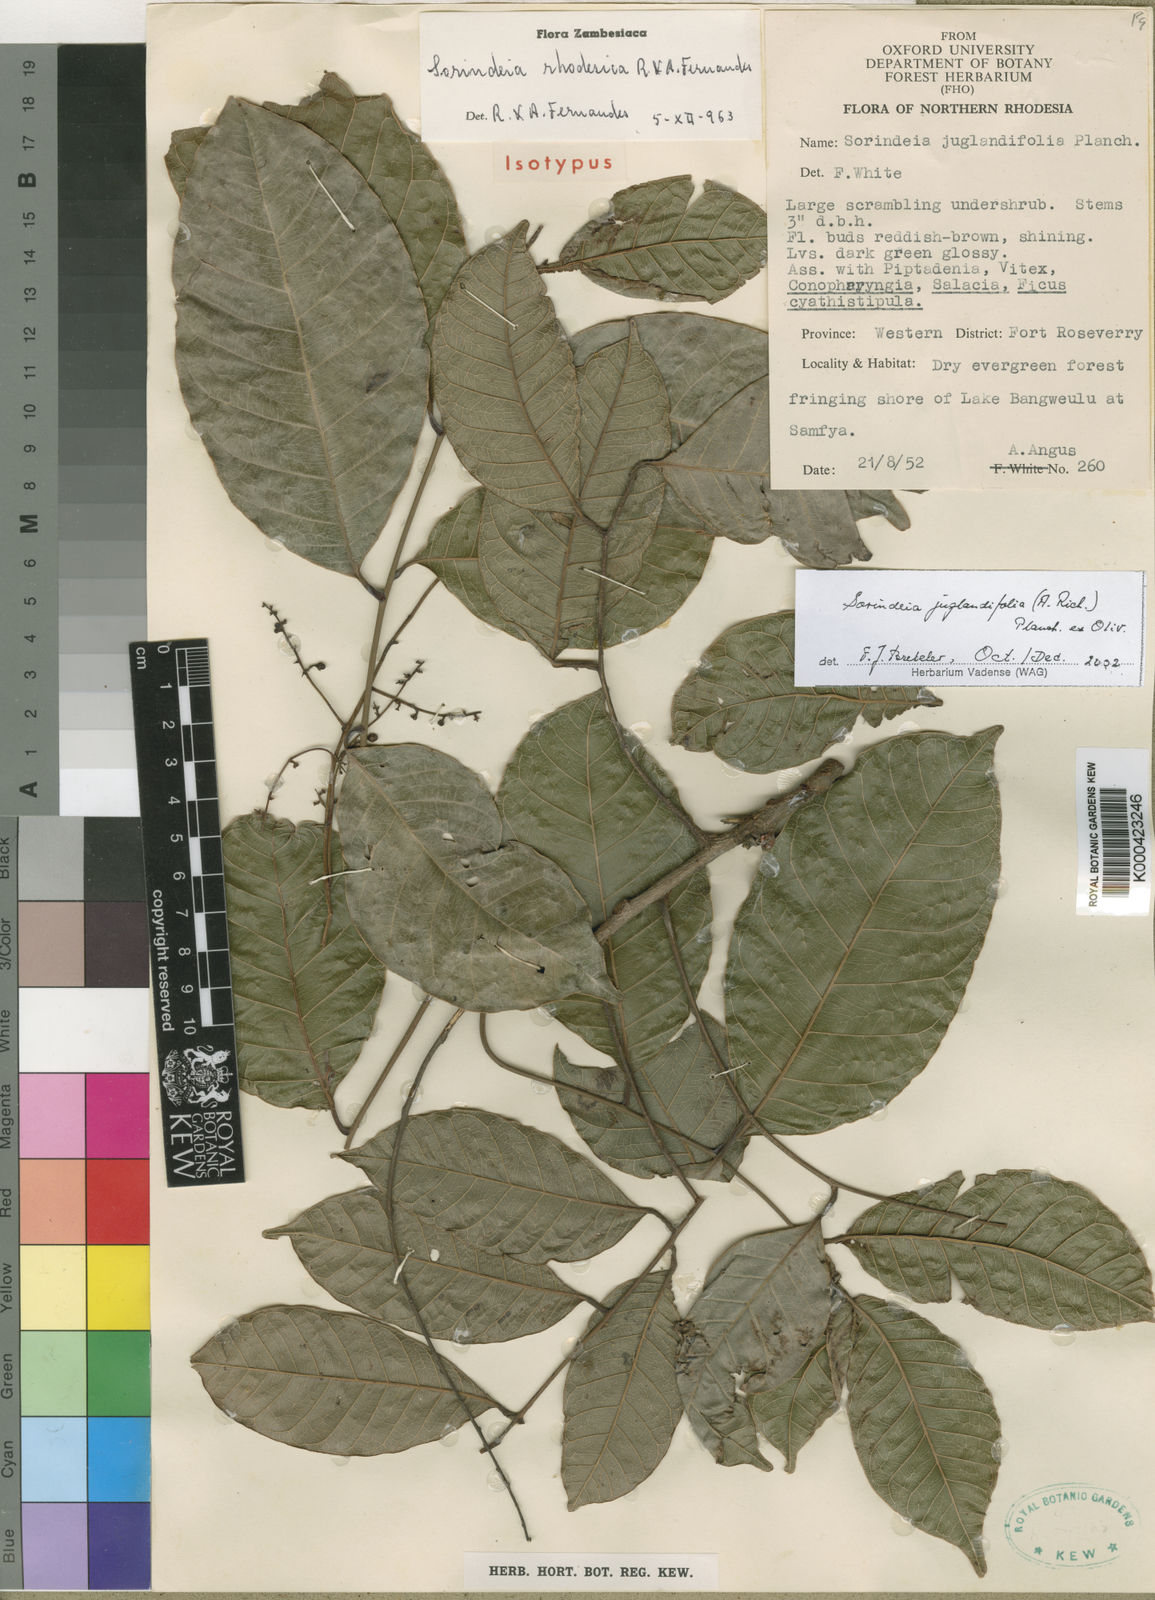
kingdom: Plantae
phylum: Tracheophyta
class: Magnoliopsida
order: Sapindales
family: Anacardiaceae
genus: Sorindeia
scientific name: Sorindeia juglandifolia
